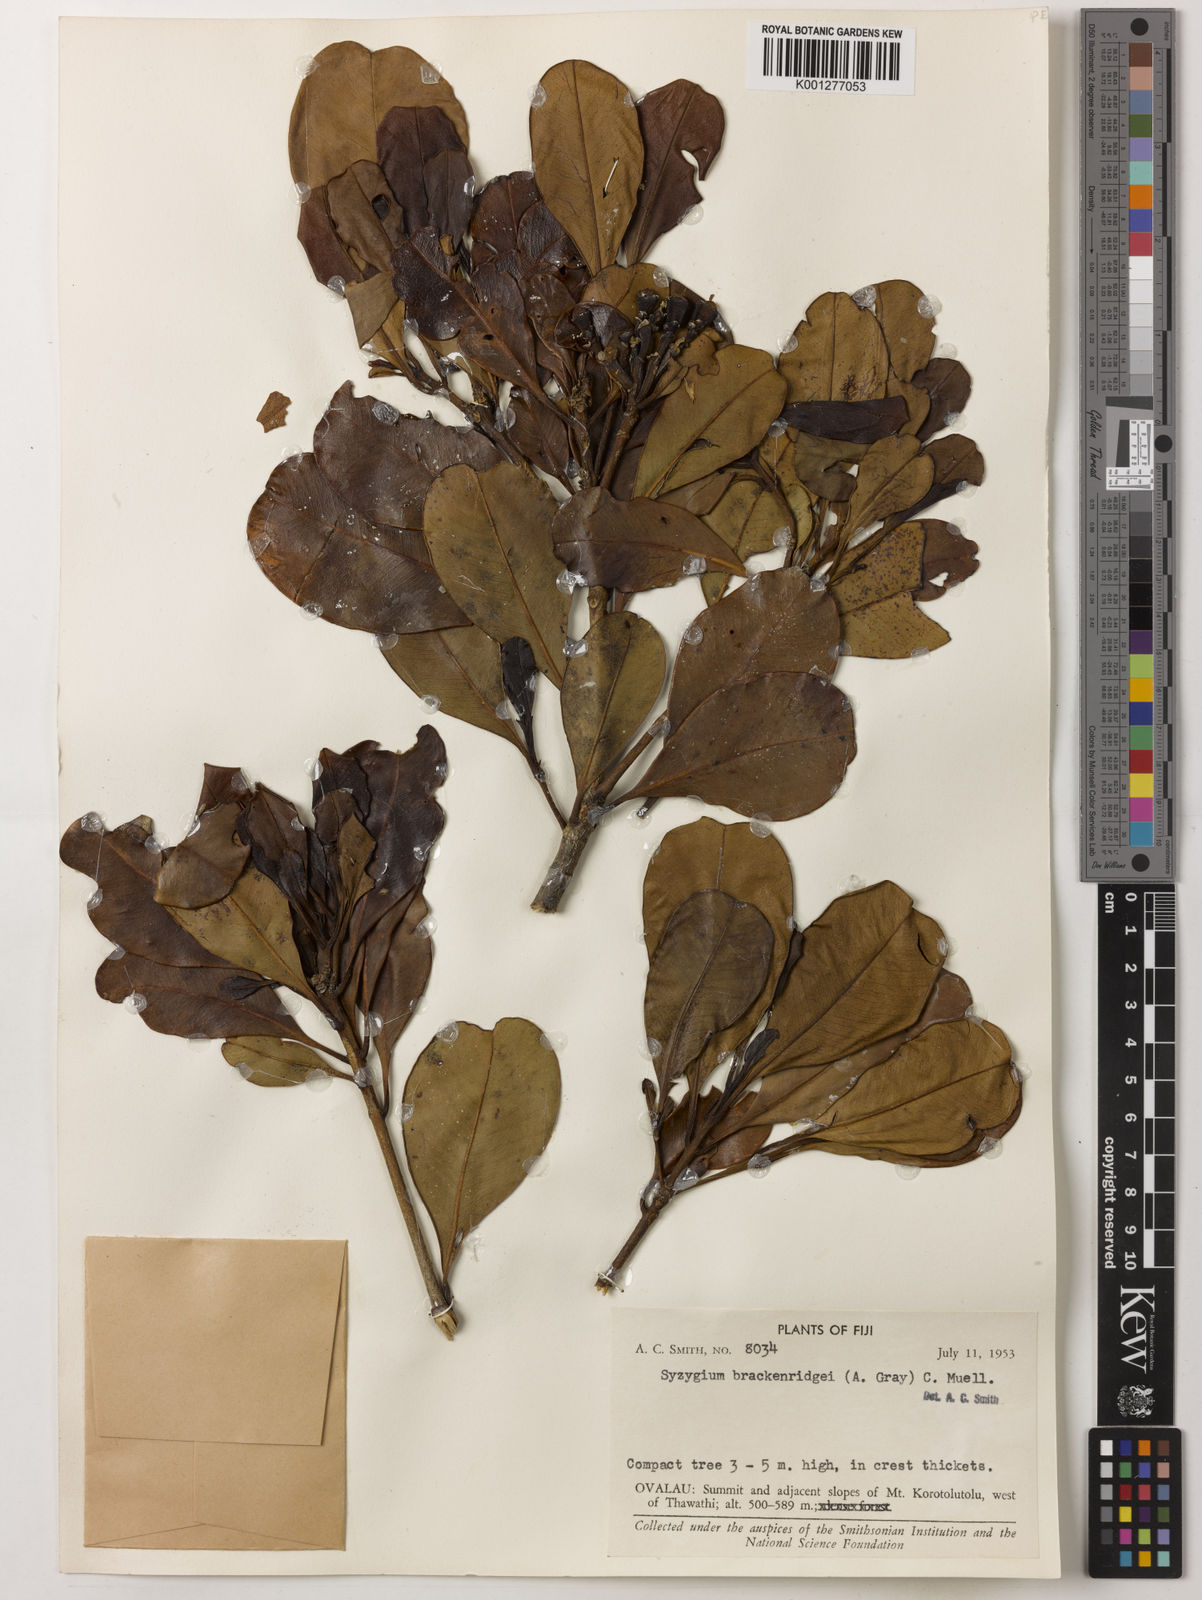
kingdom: Plantae
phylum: Tracheophyta
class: Magnoliopsida
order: Myrtales
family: Myrtaceae
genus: Syzygium
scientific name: Syzygium
